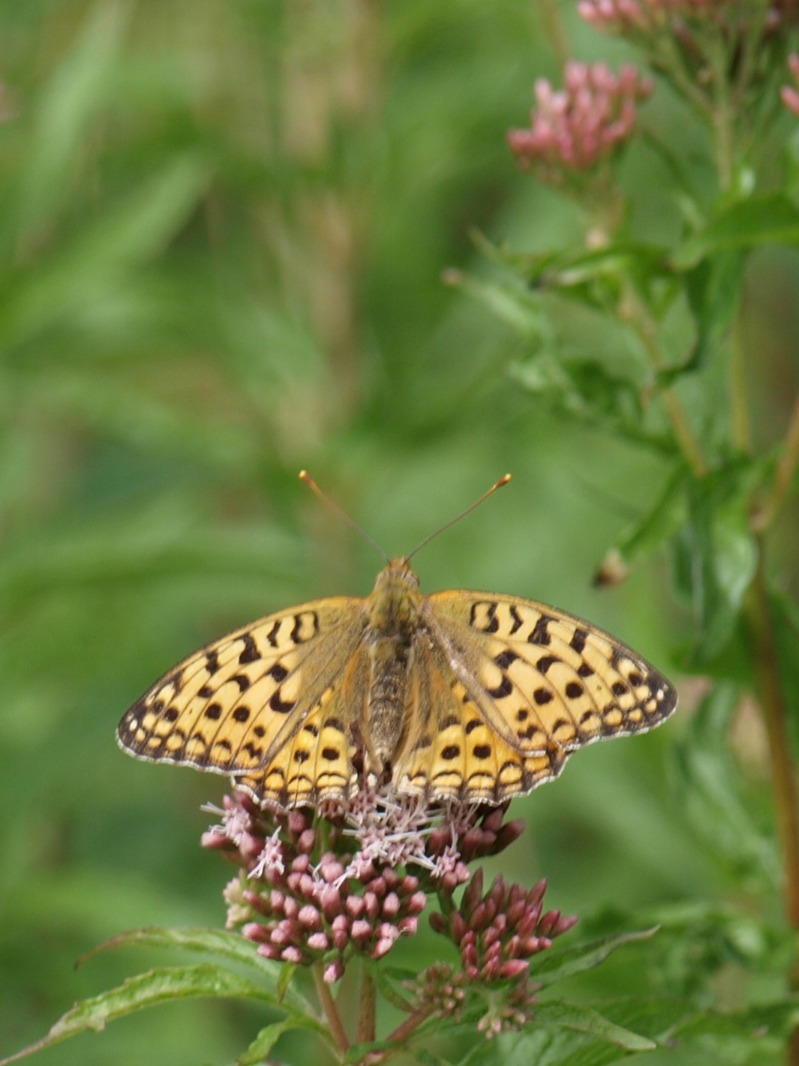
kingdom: Animalia
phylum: Arthropoda
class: Insecta
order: Lepidoptera
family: Nymphalidae
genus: Fabriciana
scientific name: Fabriciana adippe
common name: Skovperlemorsommerfugl
